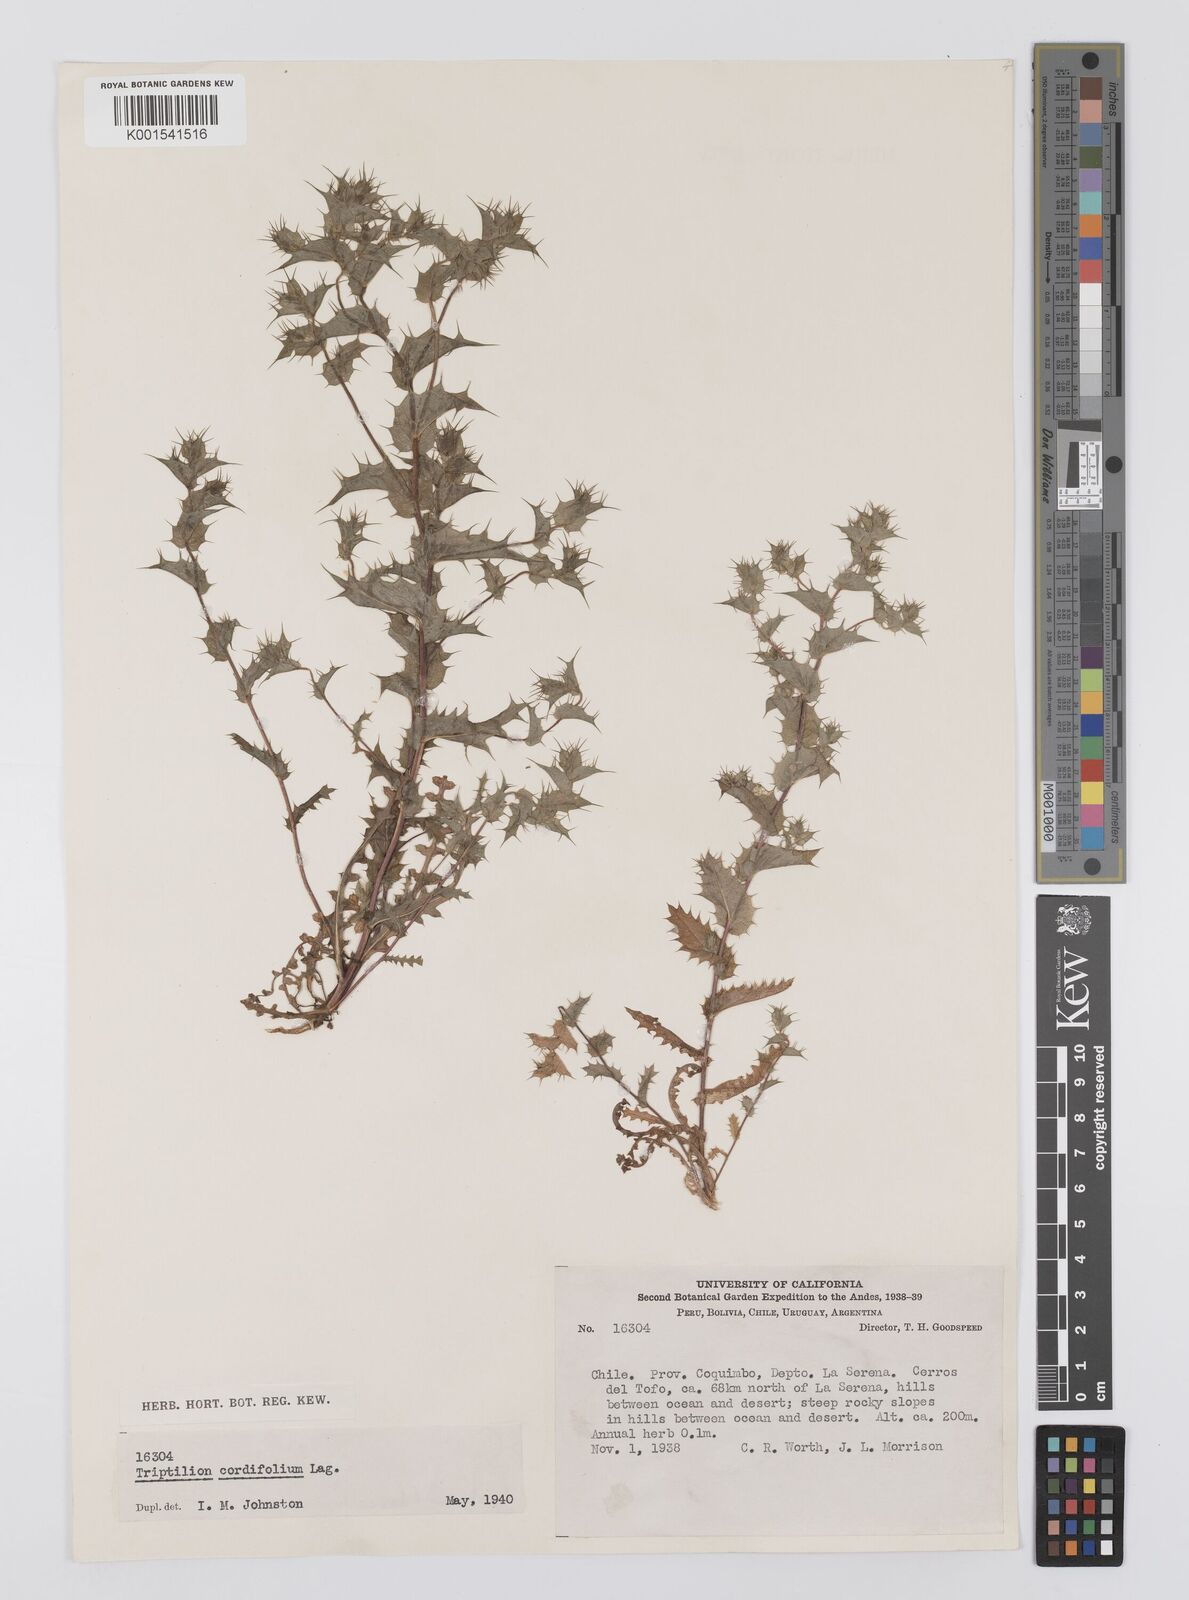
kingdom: Plantae
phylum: Tracheophyta
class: Magnoliopsida
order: Asterales
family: Asteraceae
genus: Triptilion
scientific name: Triptilion cordifolium
